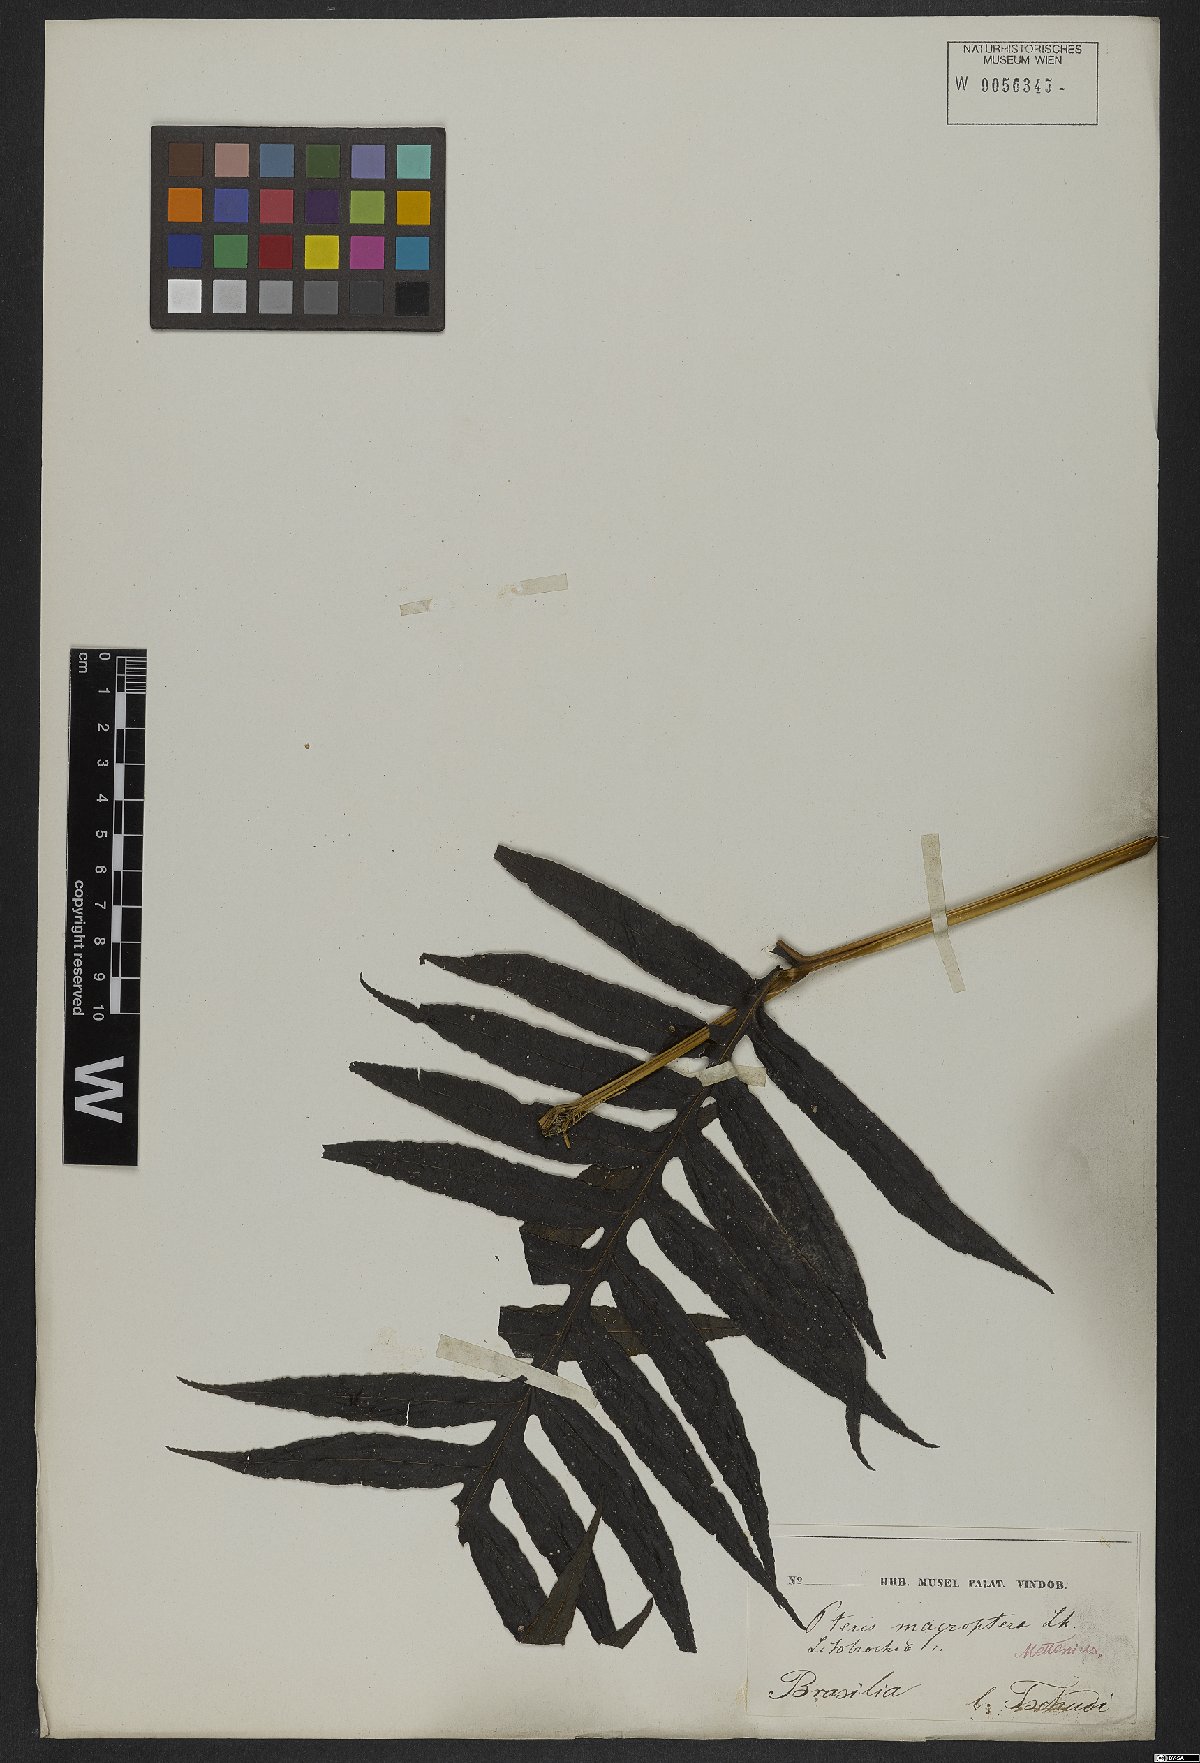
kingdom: Plantae
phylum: Tracheophyta
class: Polypodiopsida
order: Polypodiales
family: Pteridaceae
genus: Pteris
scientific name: Pteris altissima
